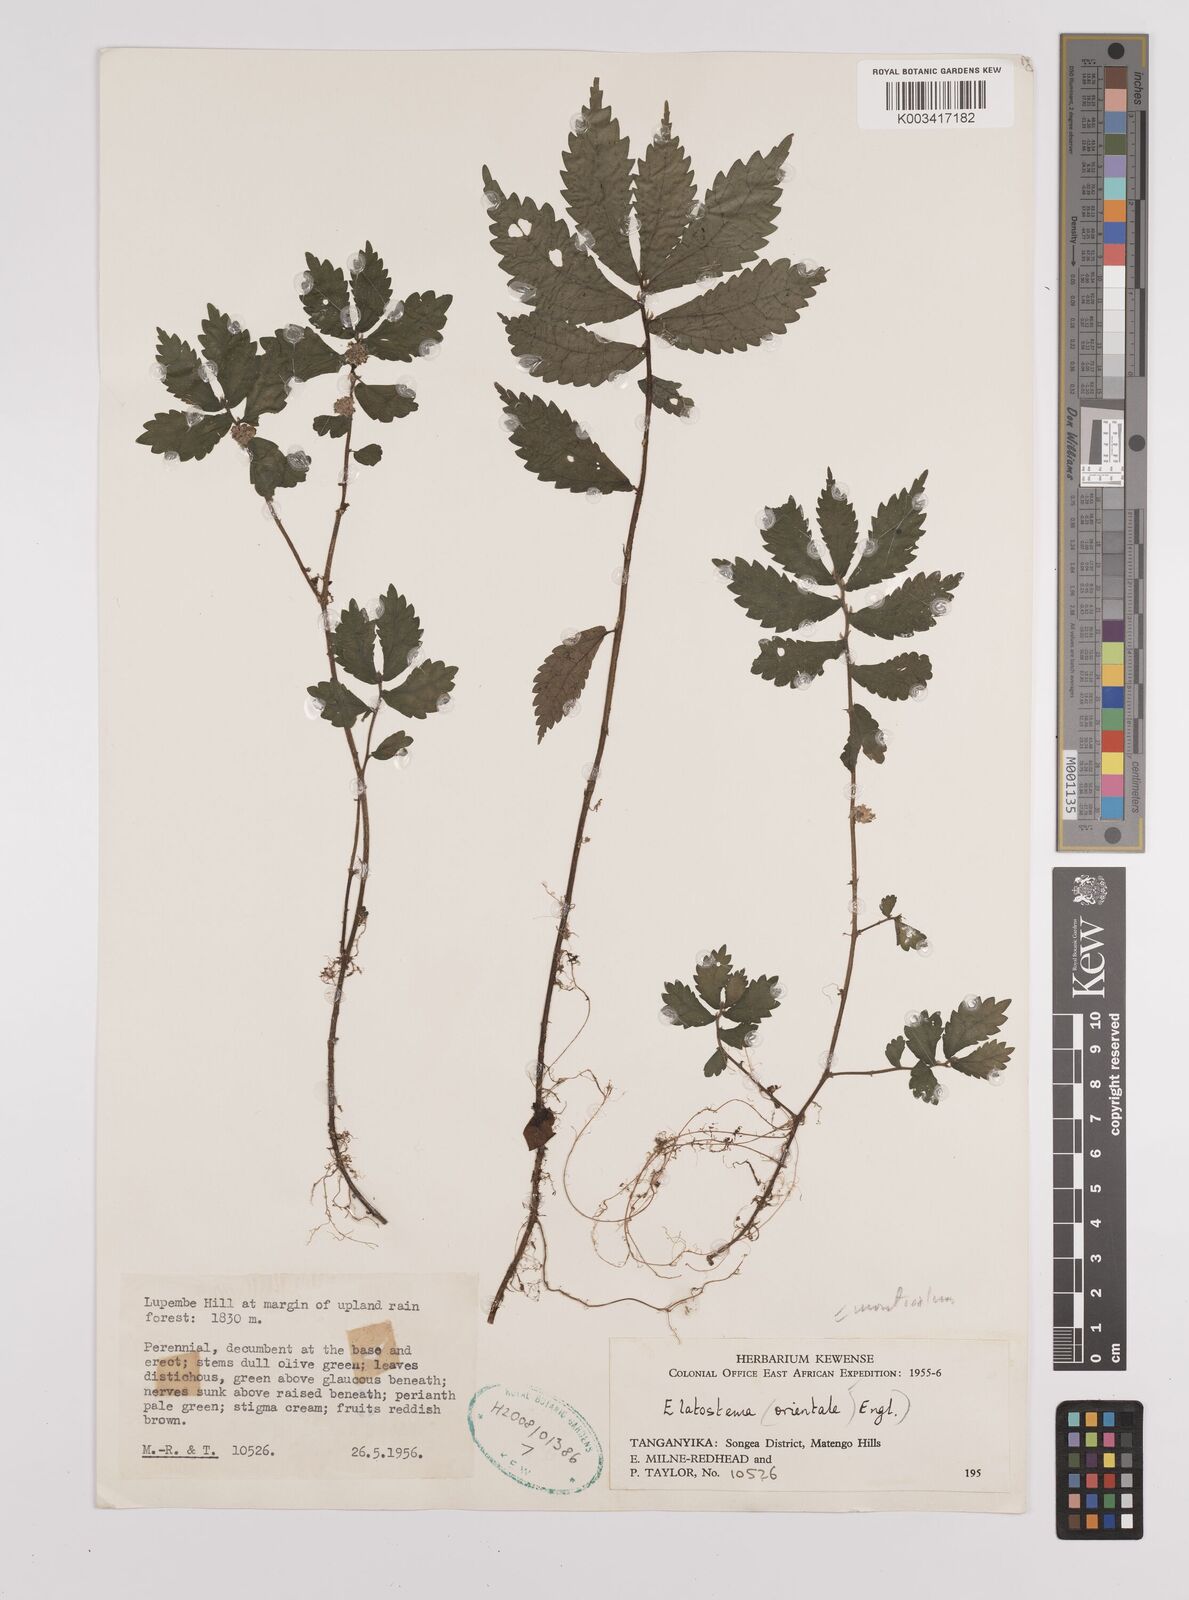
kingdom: Plantae
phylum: Tracheophyta
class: Magnoliopsida
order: Rosales
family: Urticaceae
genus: Elatostema
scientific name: Elatostema monticola
